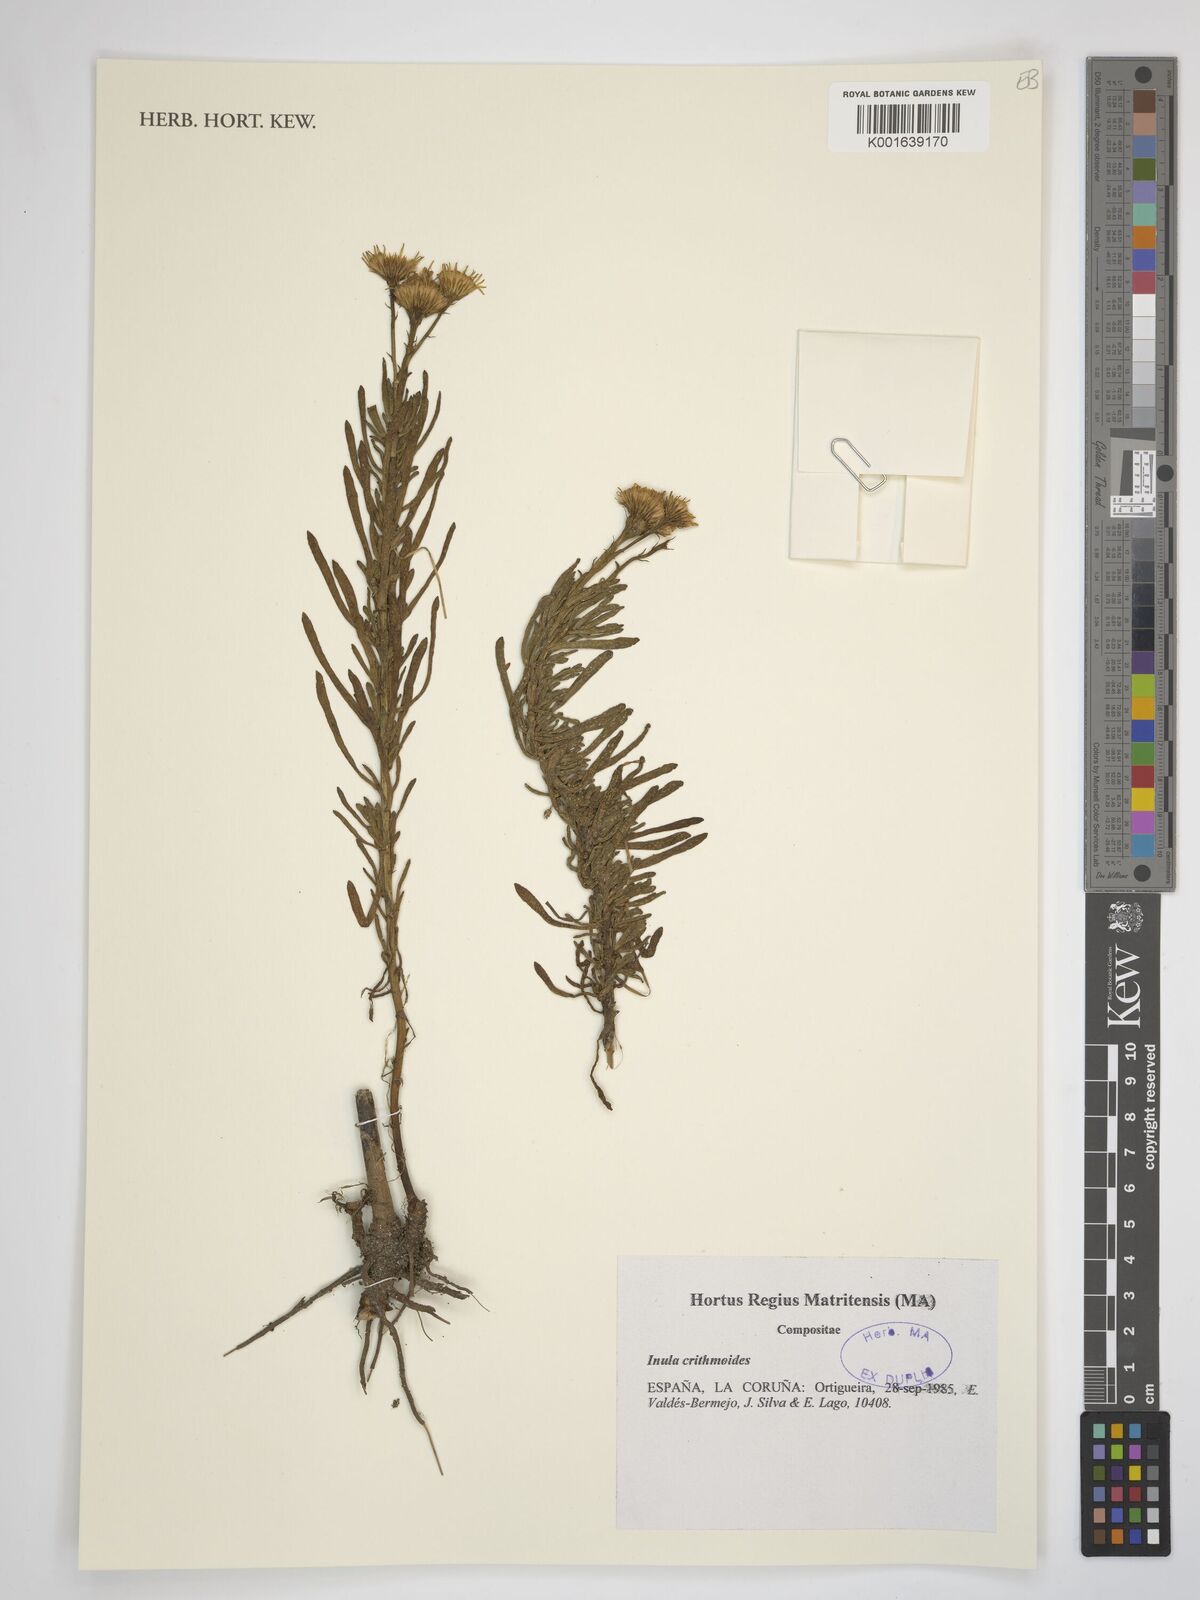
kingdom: Plantae
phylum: Tracheophyta
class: Magnoliopsida
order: Asterales
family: Asteraceae
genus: Limbarda
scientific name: Limbarda crithmoides
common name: Golden samphire
